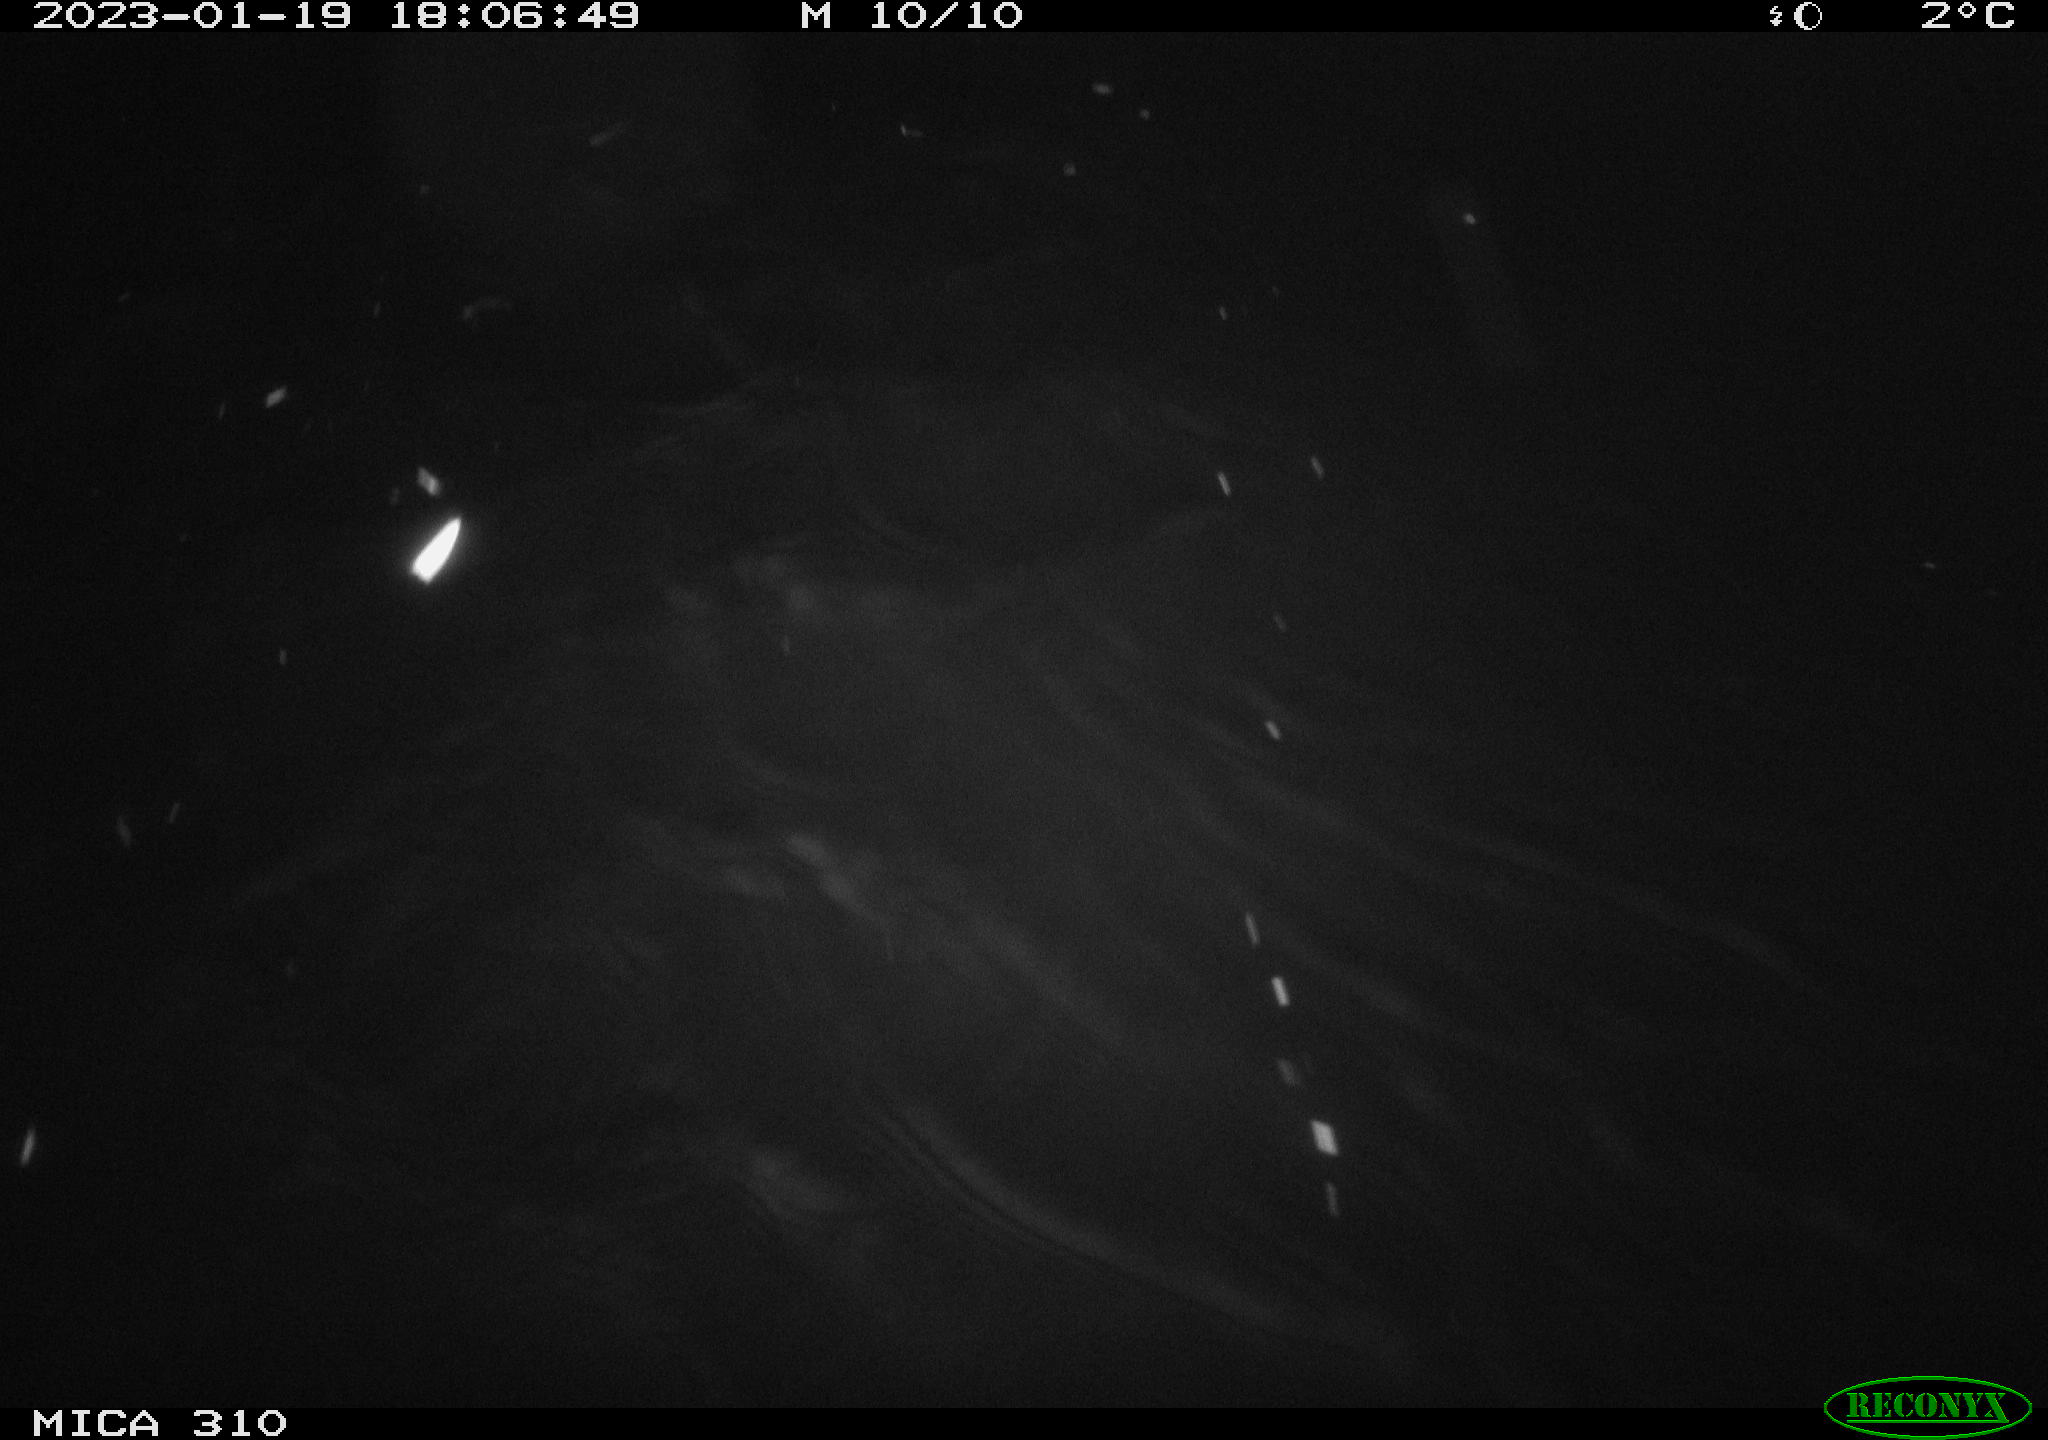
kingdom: Animalia
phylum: Chordata
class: Aves
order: Anseriformes
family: Anatidae
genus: Anas
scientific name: Anas
